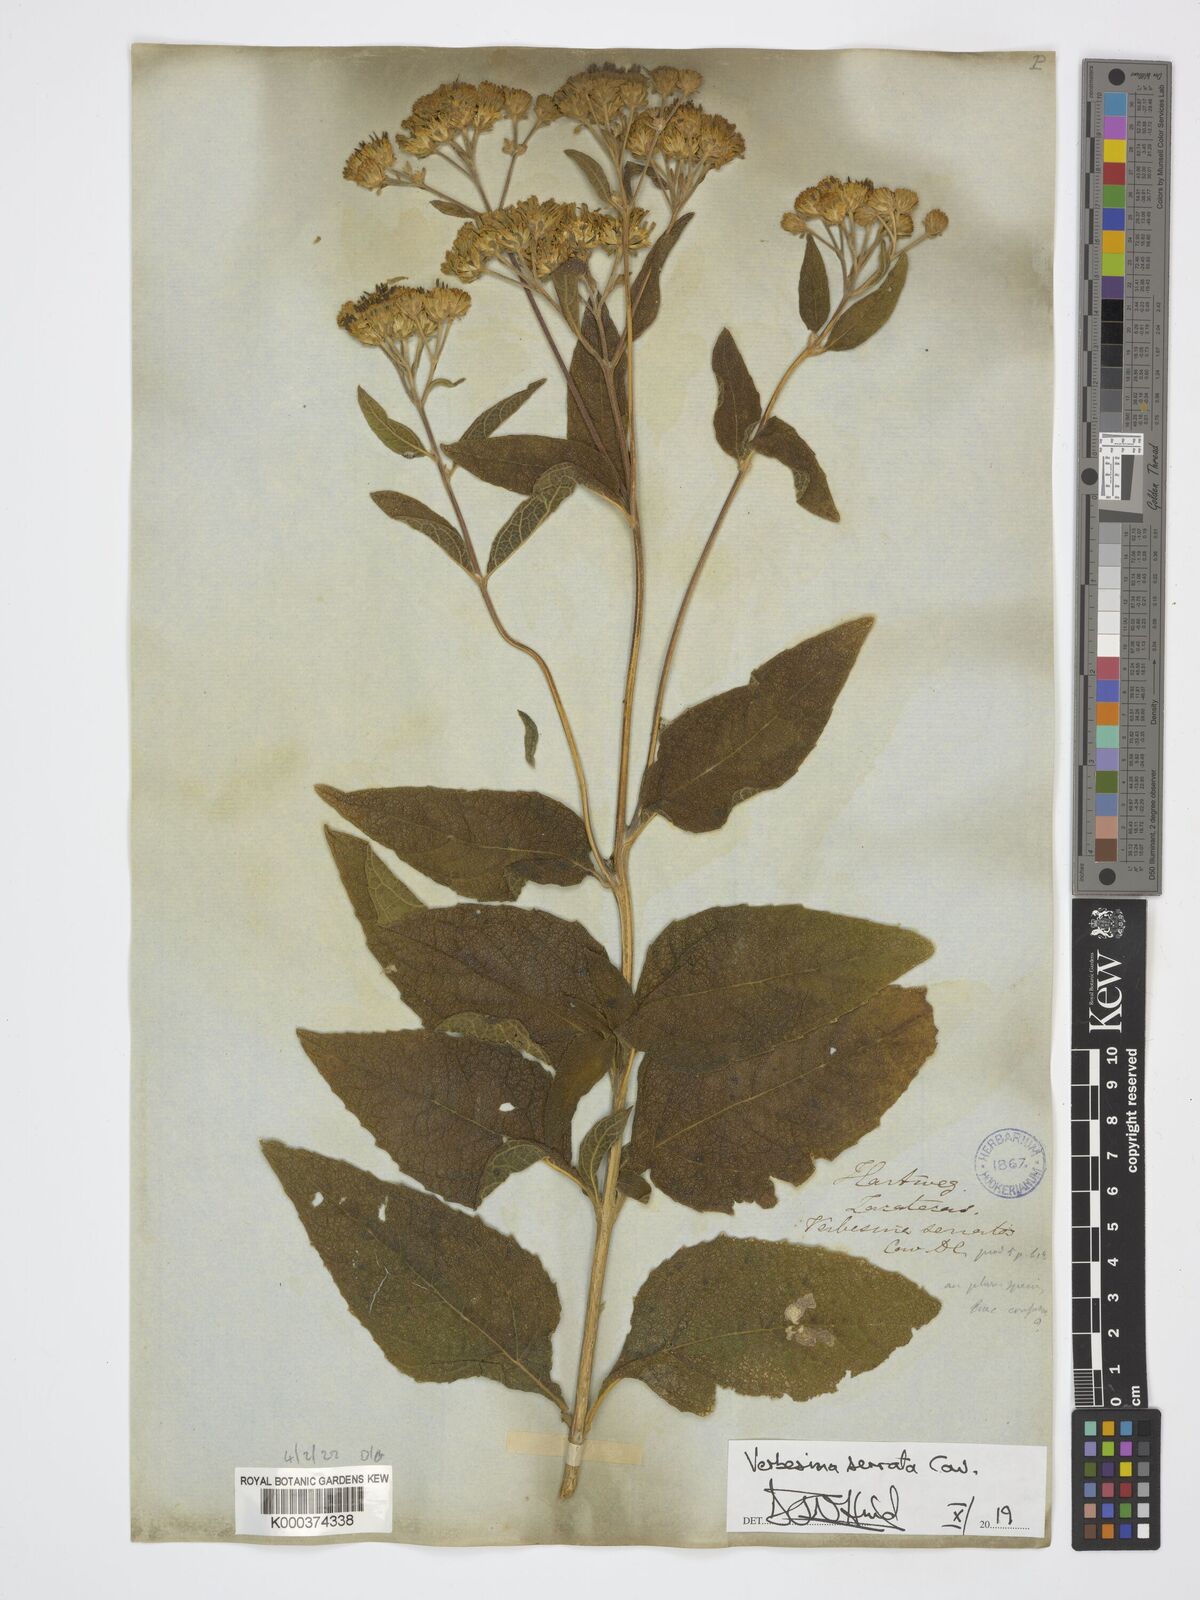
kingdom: Plantae
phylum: Tracheophyta
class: Magnoliopsida
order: Asterales
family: Asteraceae
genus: Verbesina
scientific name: Verbesina serrata
